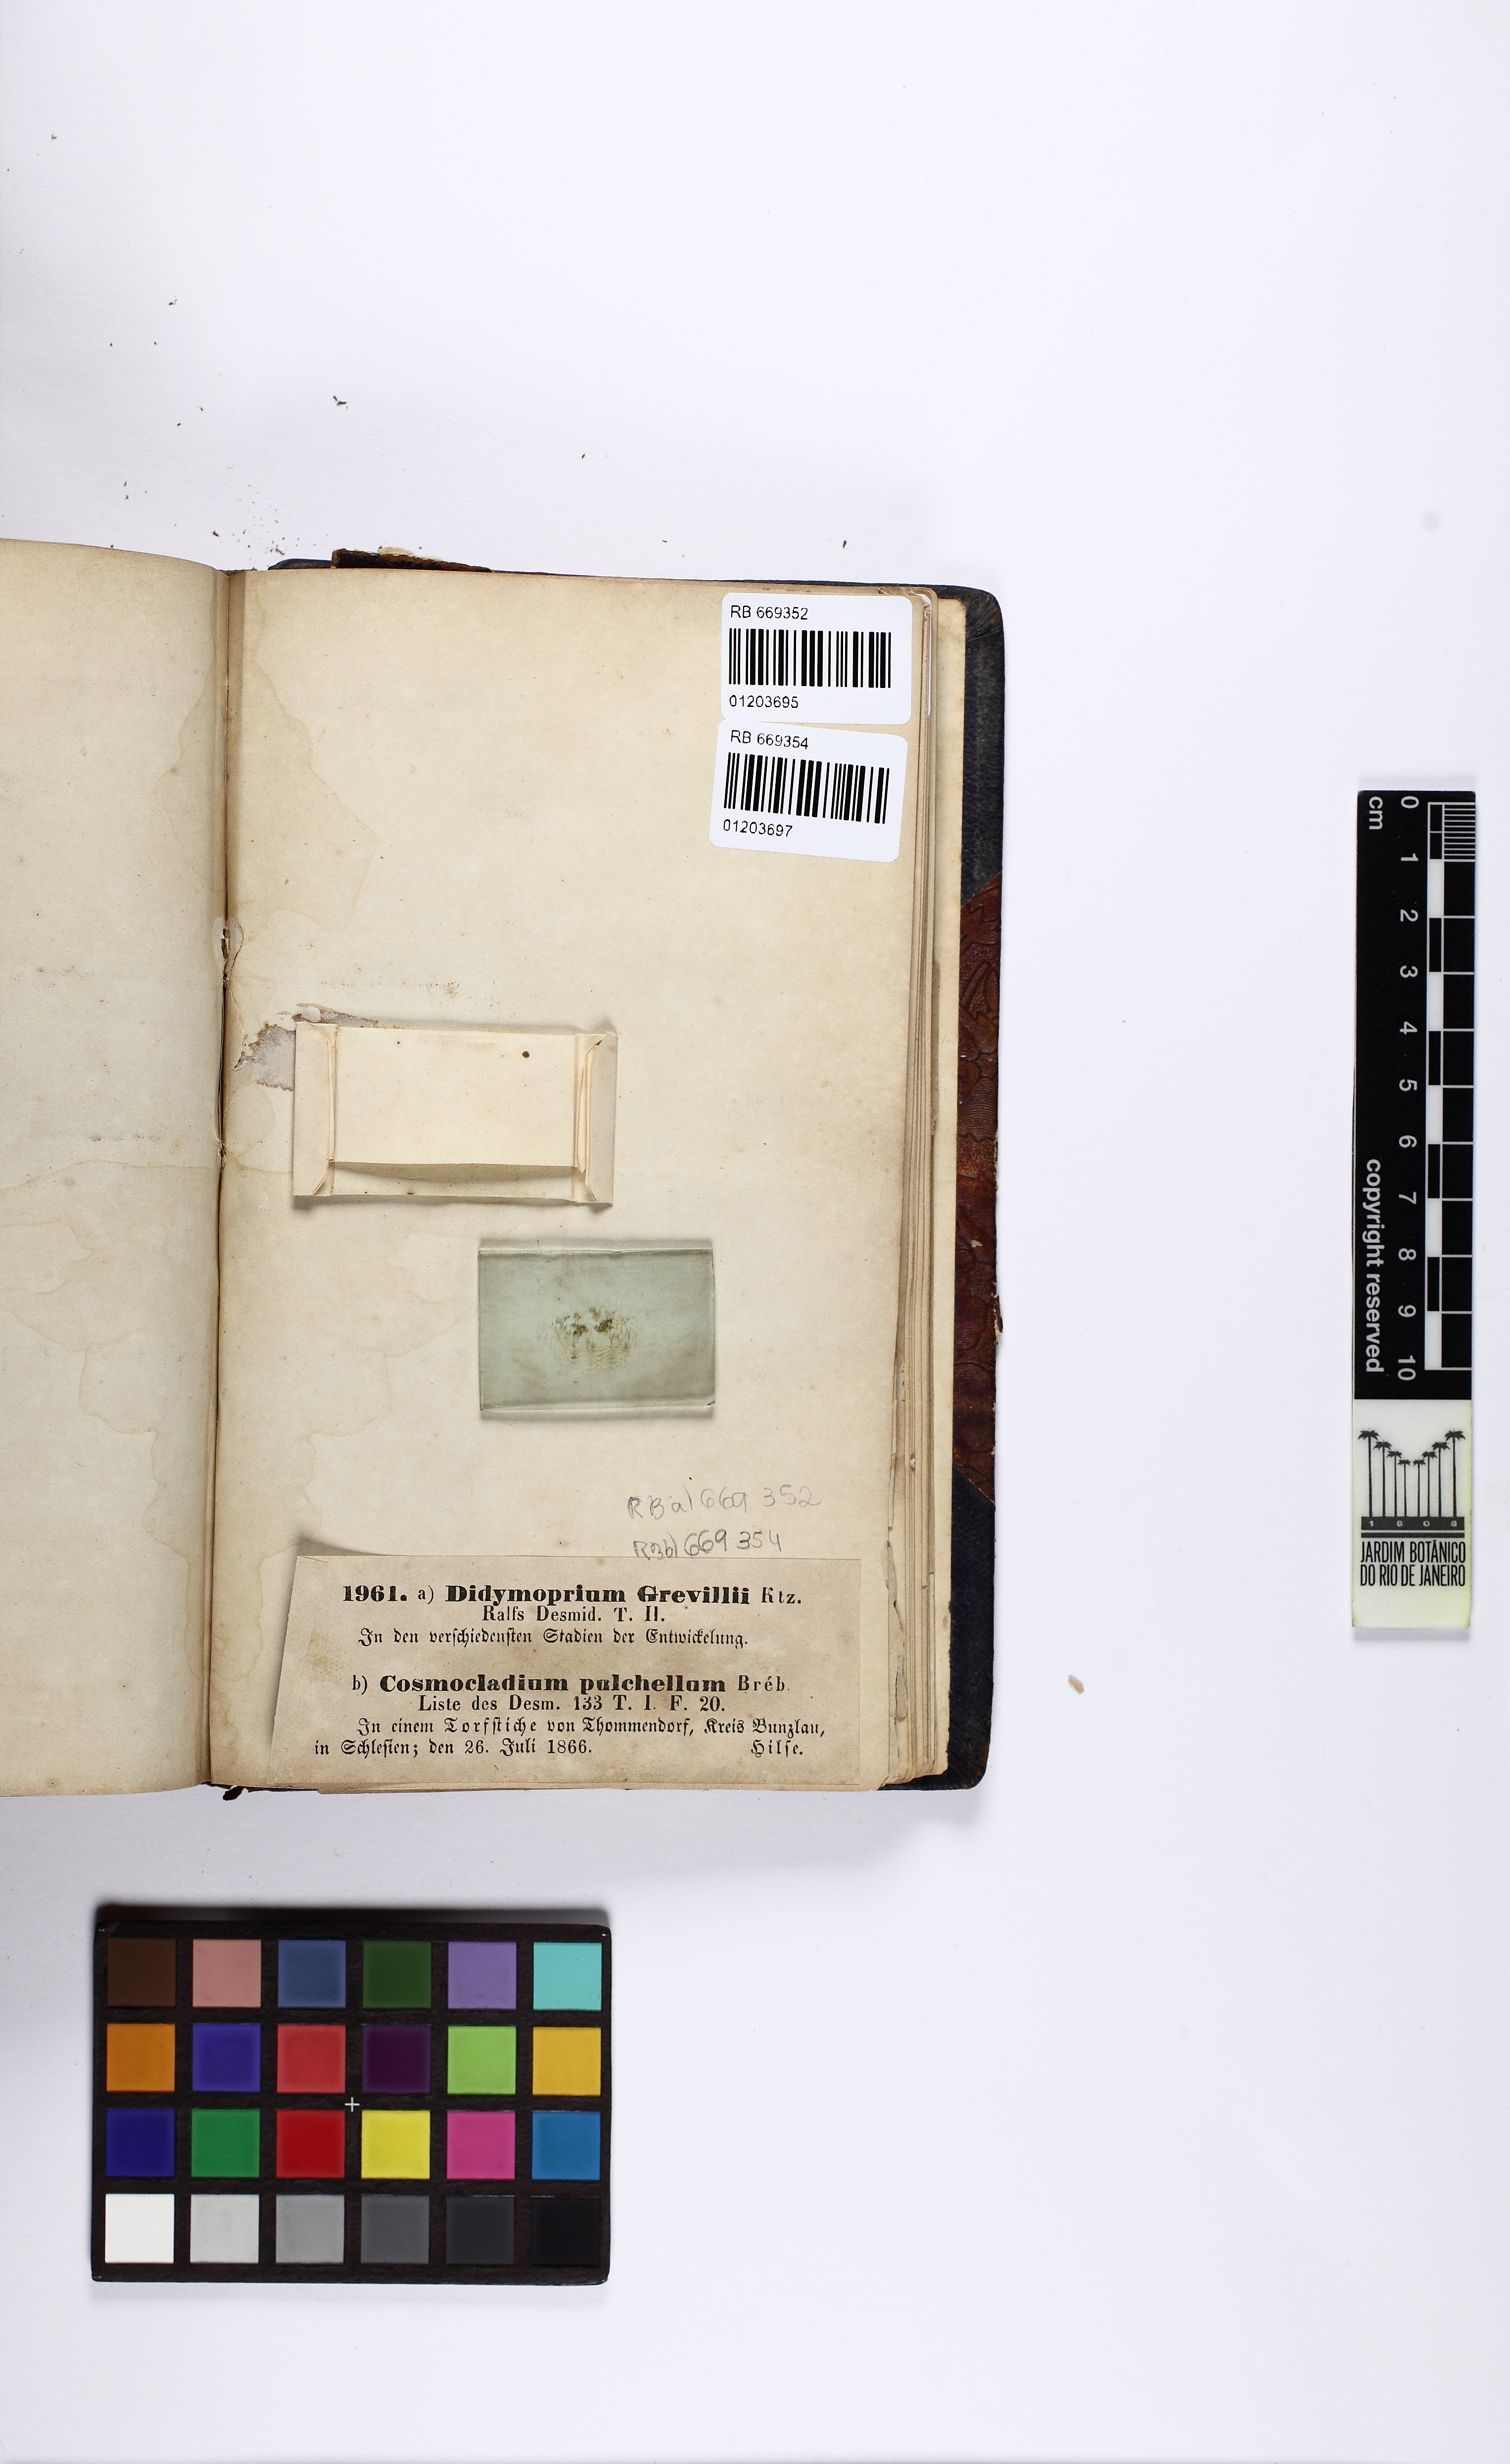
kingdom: Plantae
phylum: Charophyta
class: Conjugatophyceae
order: Desmidiales
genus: Desmidium
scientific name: Desmidium grevillei
